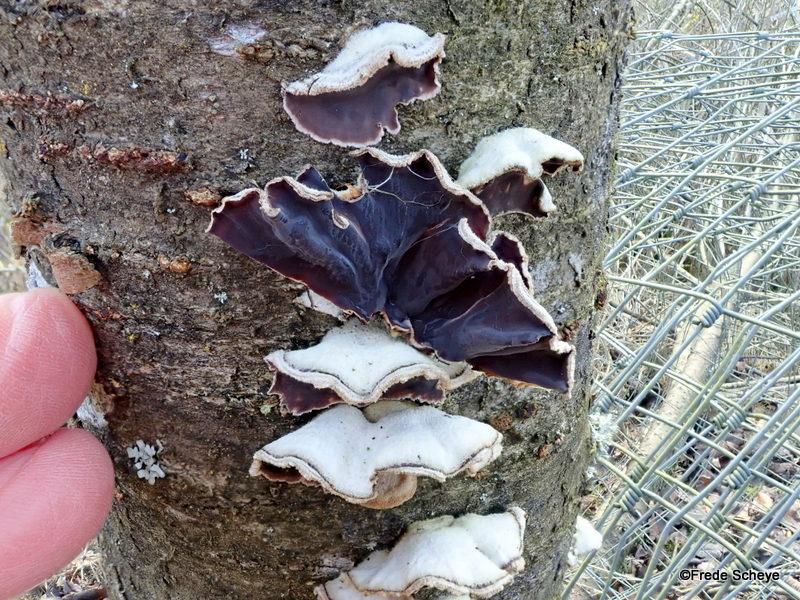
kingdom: Fungi
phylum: Basidiomycota
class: Agaricomycetes
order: Agaricales
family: Cyphellaceae
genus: Chondrostereum
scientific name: Chondrostereum purpureum
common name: purpurlædersvamp
